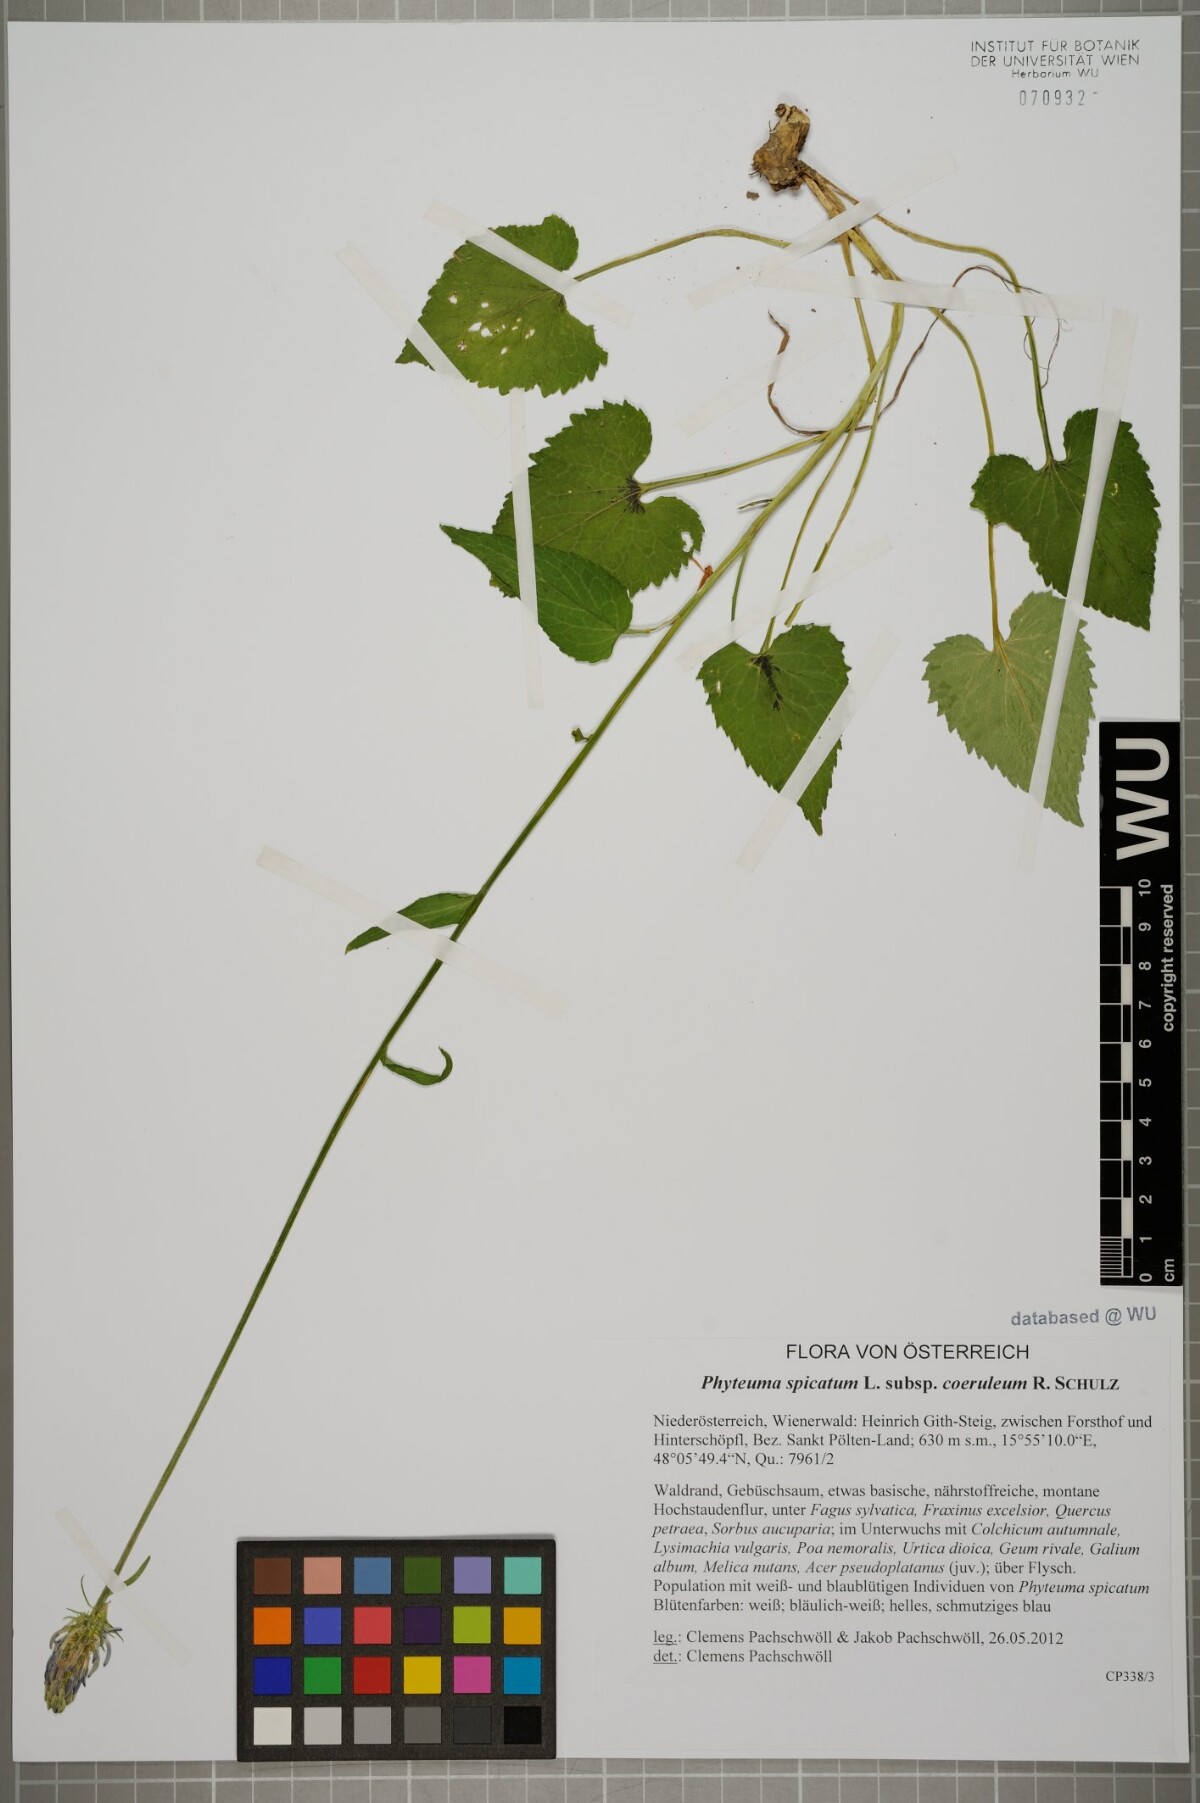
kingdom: Plantae
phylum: Tracheophyta
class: Magnoliopsida
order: Asterales
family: Campanulaceae
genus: Phyteuma
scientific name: Phyteuma spicatum
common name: Spiked rampion
